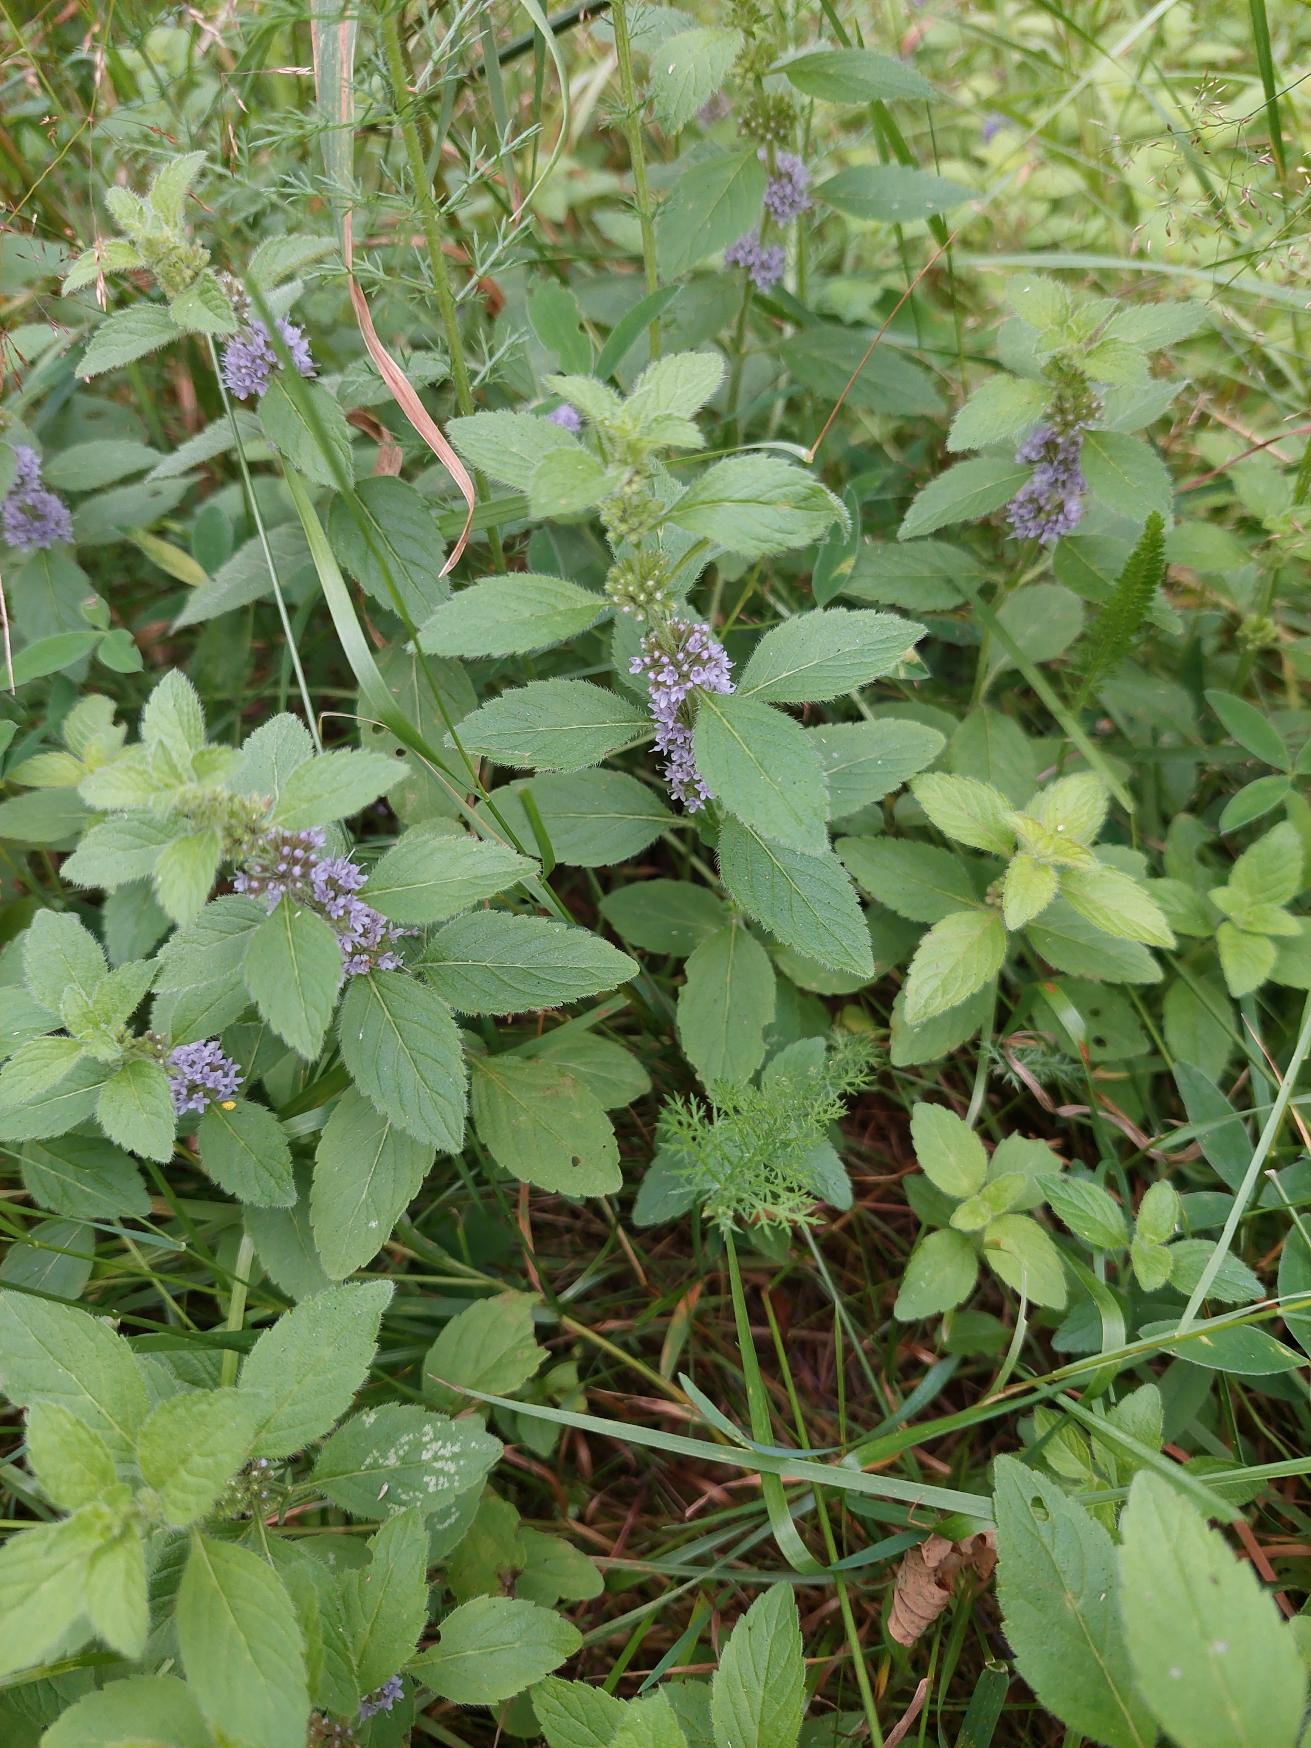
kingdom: Plantae
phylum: Tracheophyta
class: Magnoliopsida
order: Lamiales
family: Lamiaceae
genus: Mentha
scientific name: Mentha arvensis
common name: Ager-mynte
